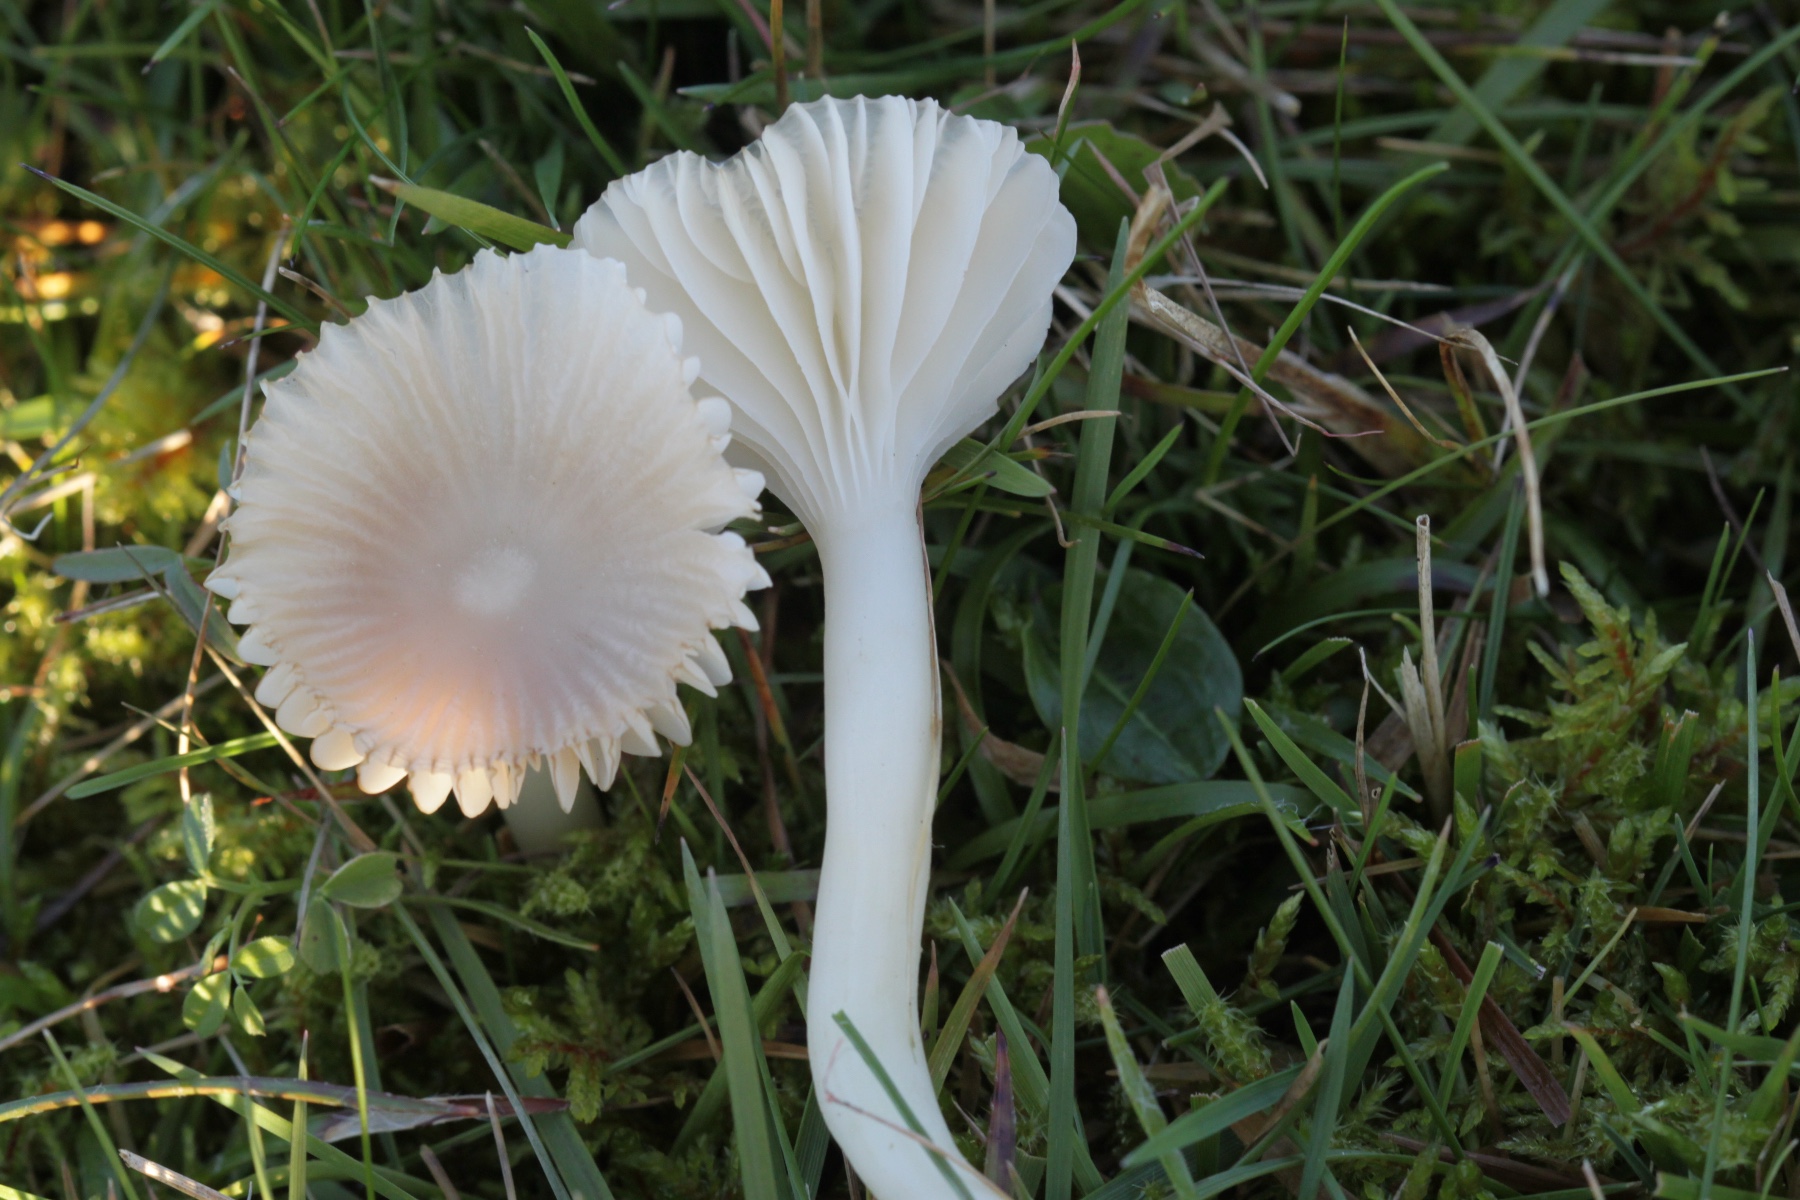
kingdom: Fungi
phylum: Basidiomycota
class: Agaricomycetes
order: Agaricales
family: Hygrophoraceae
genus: Cuphophyllus
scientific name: Cuphophyllus virgineus
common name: snehvid vokshat
